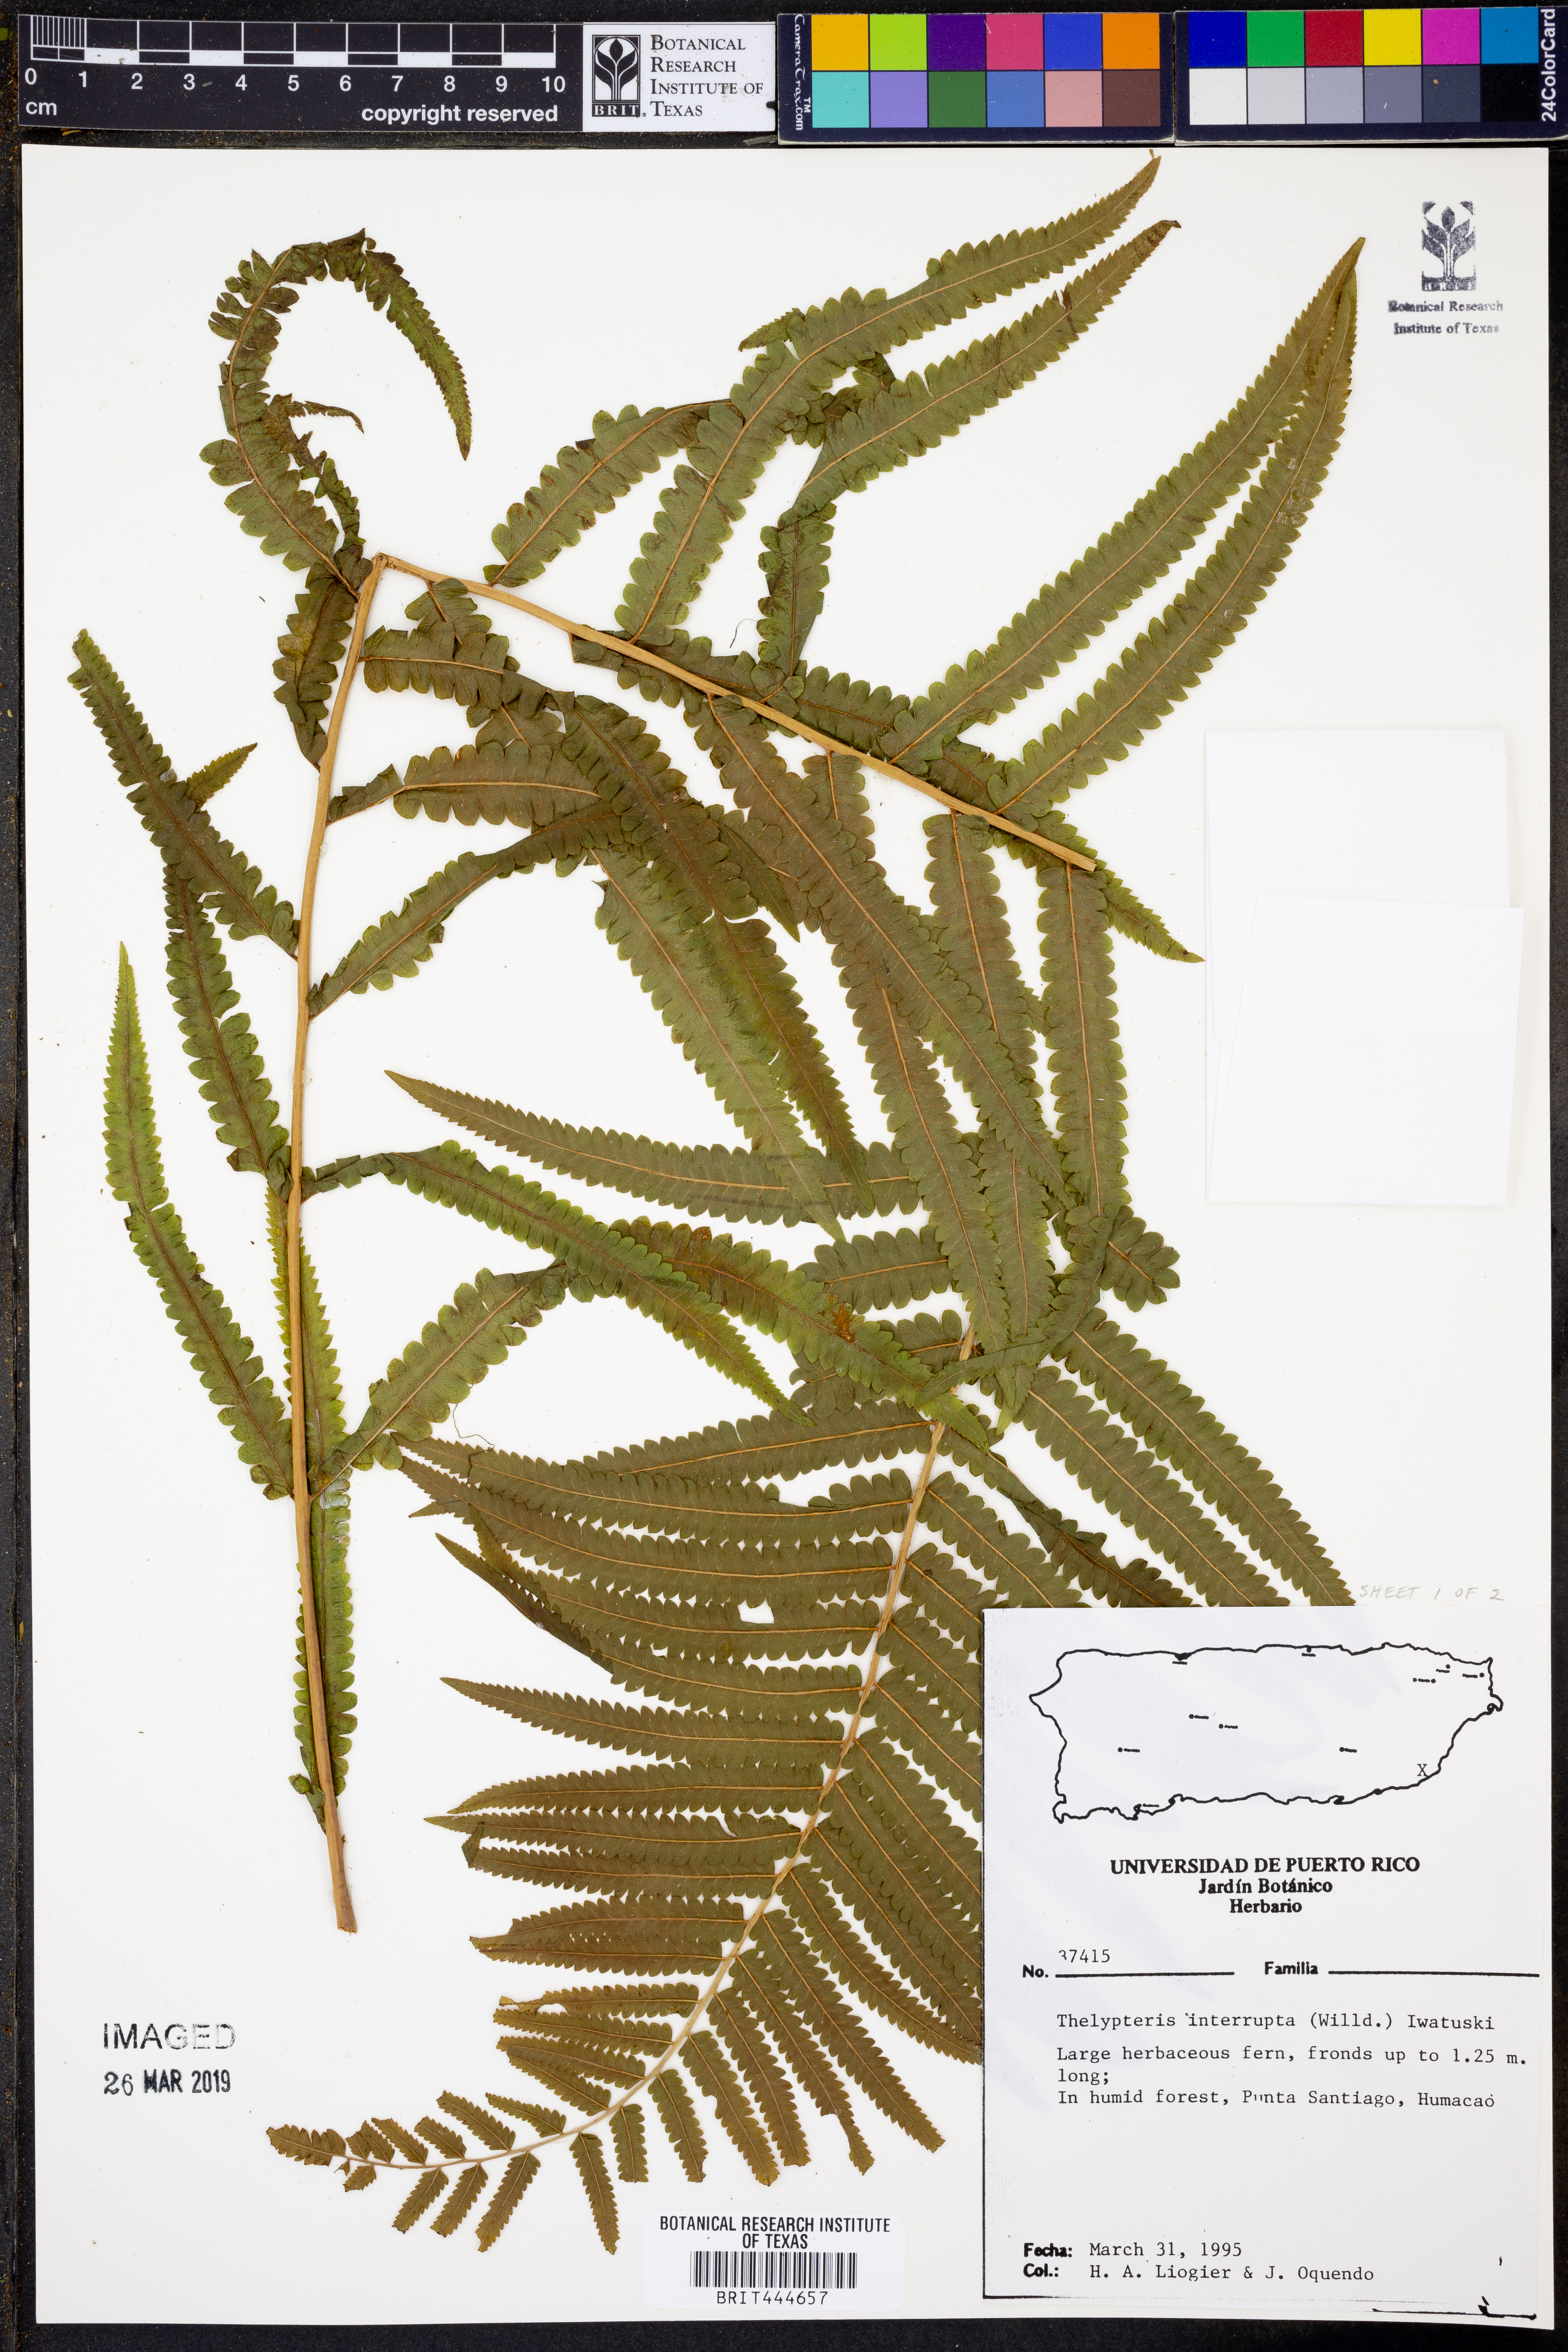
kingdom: Plantae
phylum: Tracheophyta
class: Polypodiopsida
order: Polypodiales
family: Thelypteridaceae
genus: Cyclosorus
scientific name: Cyclosorus interruptus
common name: Neke fern
